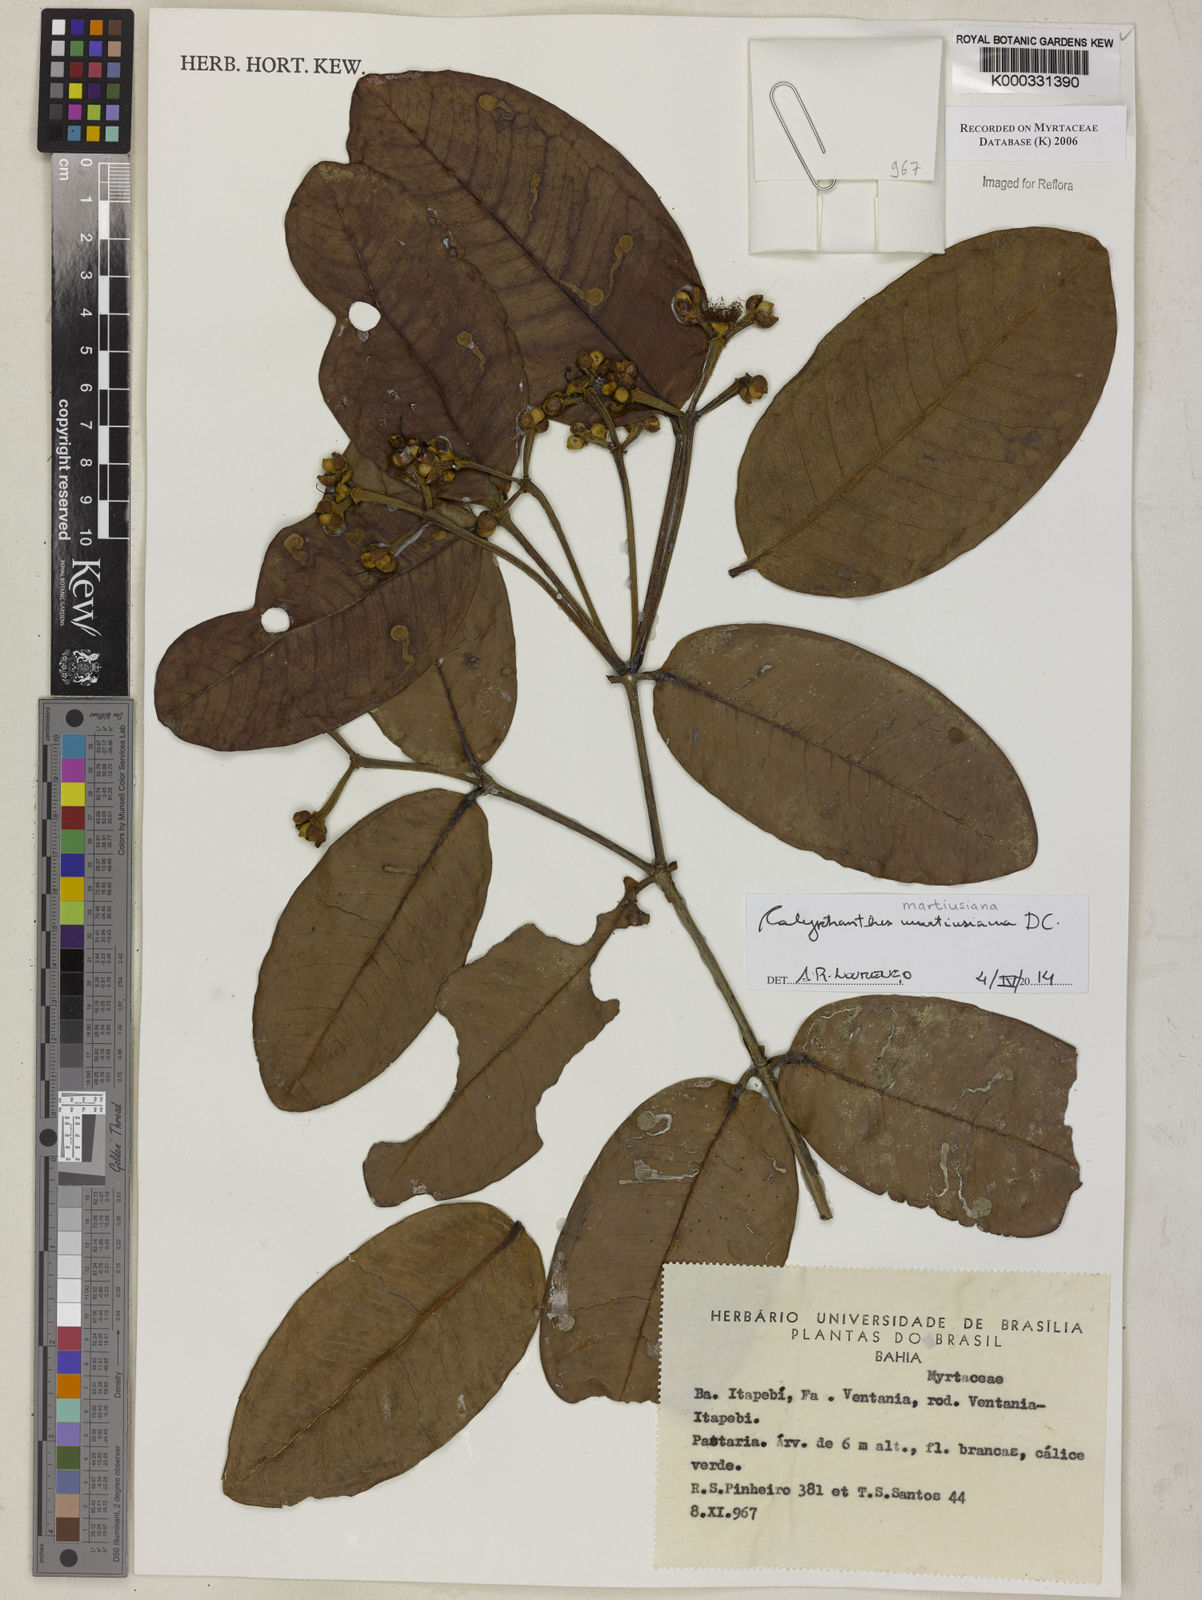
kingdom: Plantae
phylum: Tracheophyta
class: Magnoliopsida
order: Myrtales
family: Myrtaceae
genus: Calyptranthes
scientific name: Calyptranthes
